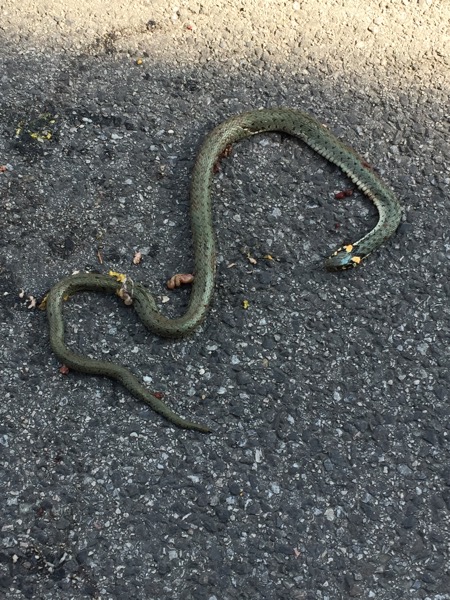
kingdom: Animalia
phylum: Chordata
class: Squamata
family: Colubridae
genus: Natrix
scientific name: Natrix natrix
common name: Grass snake
